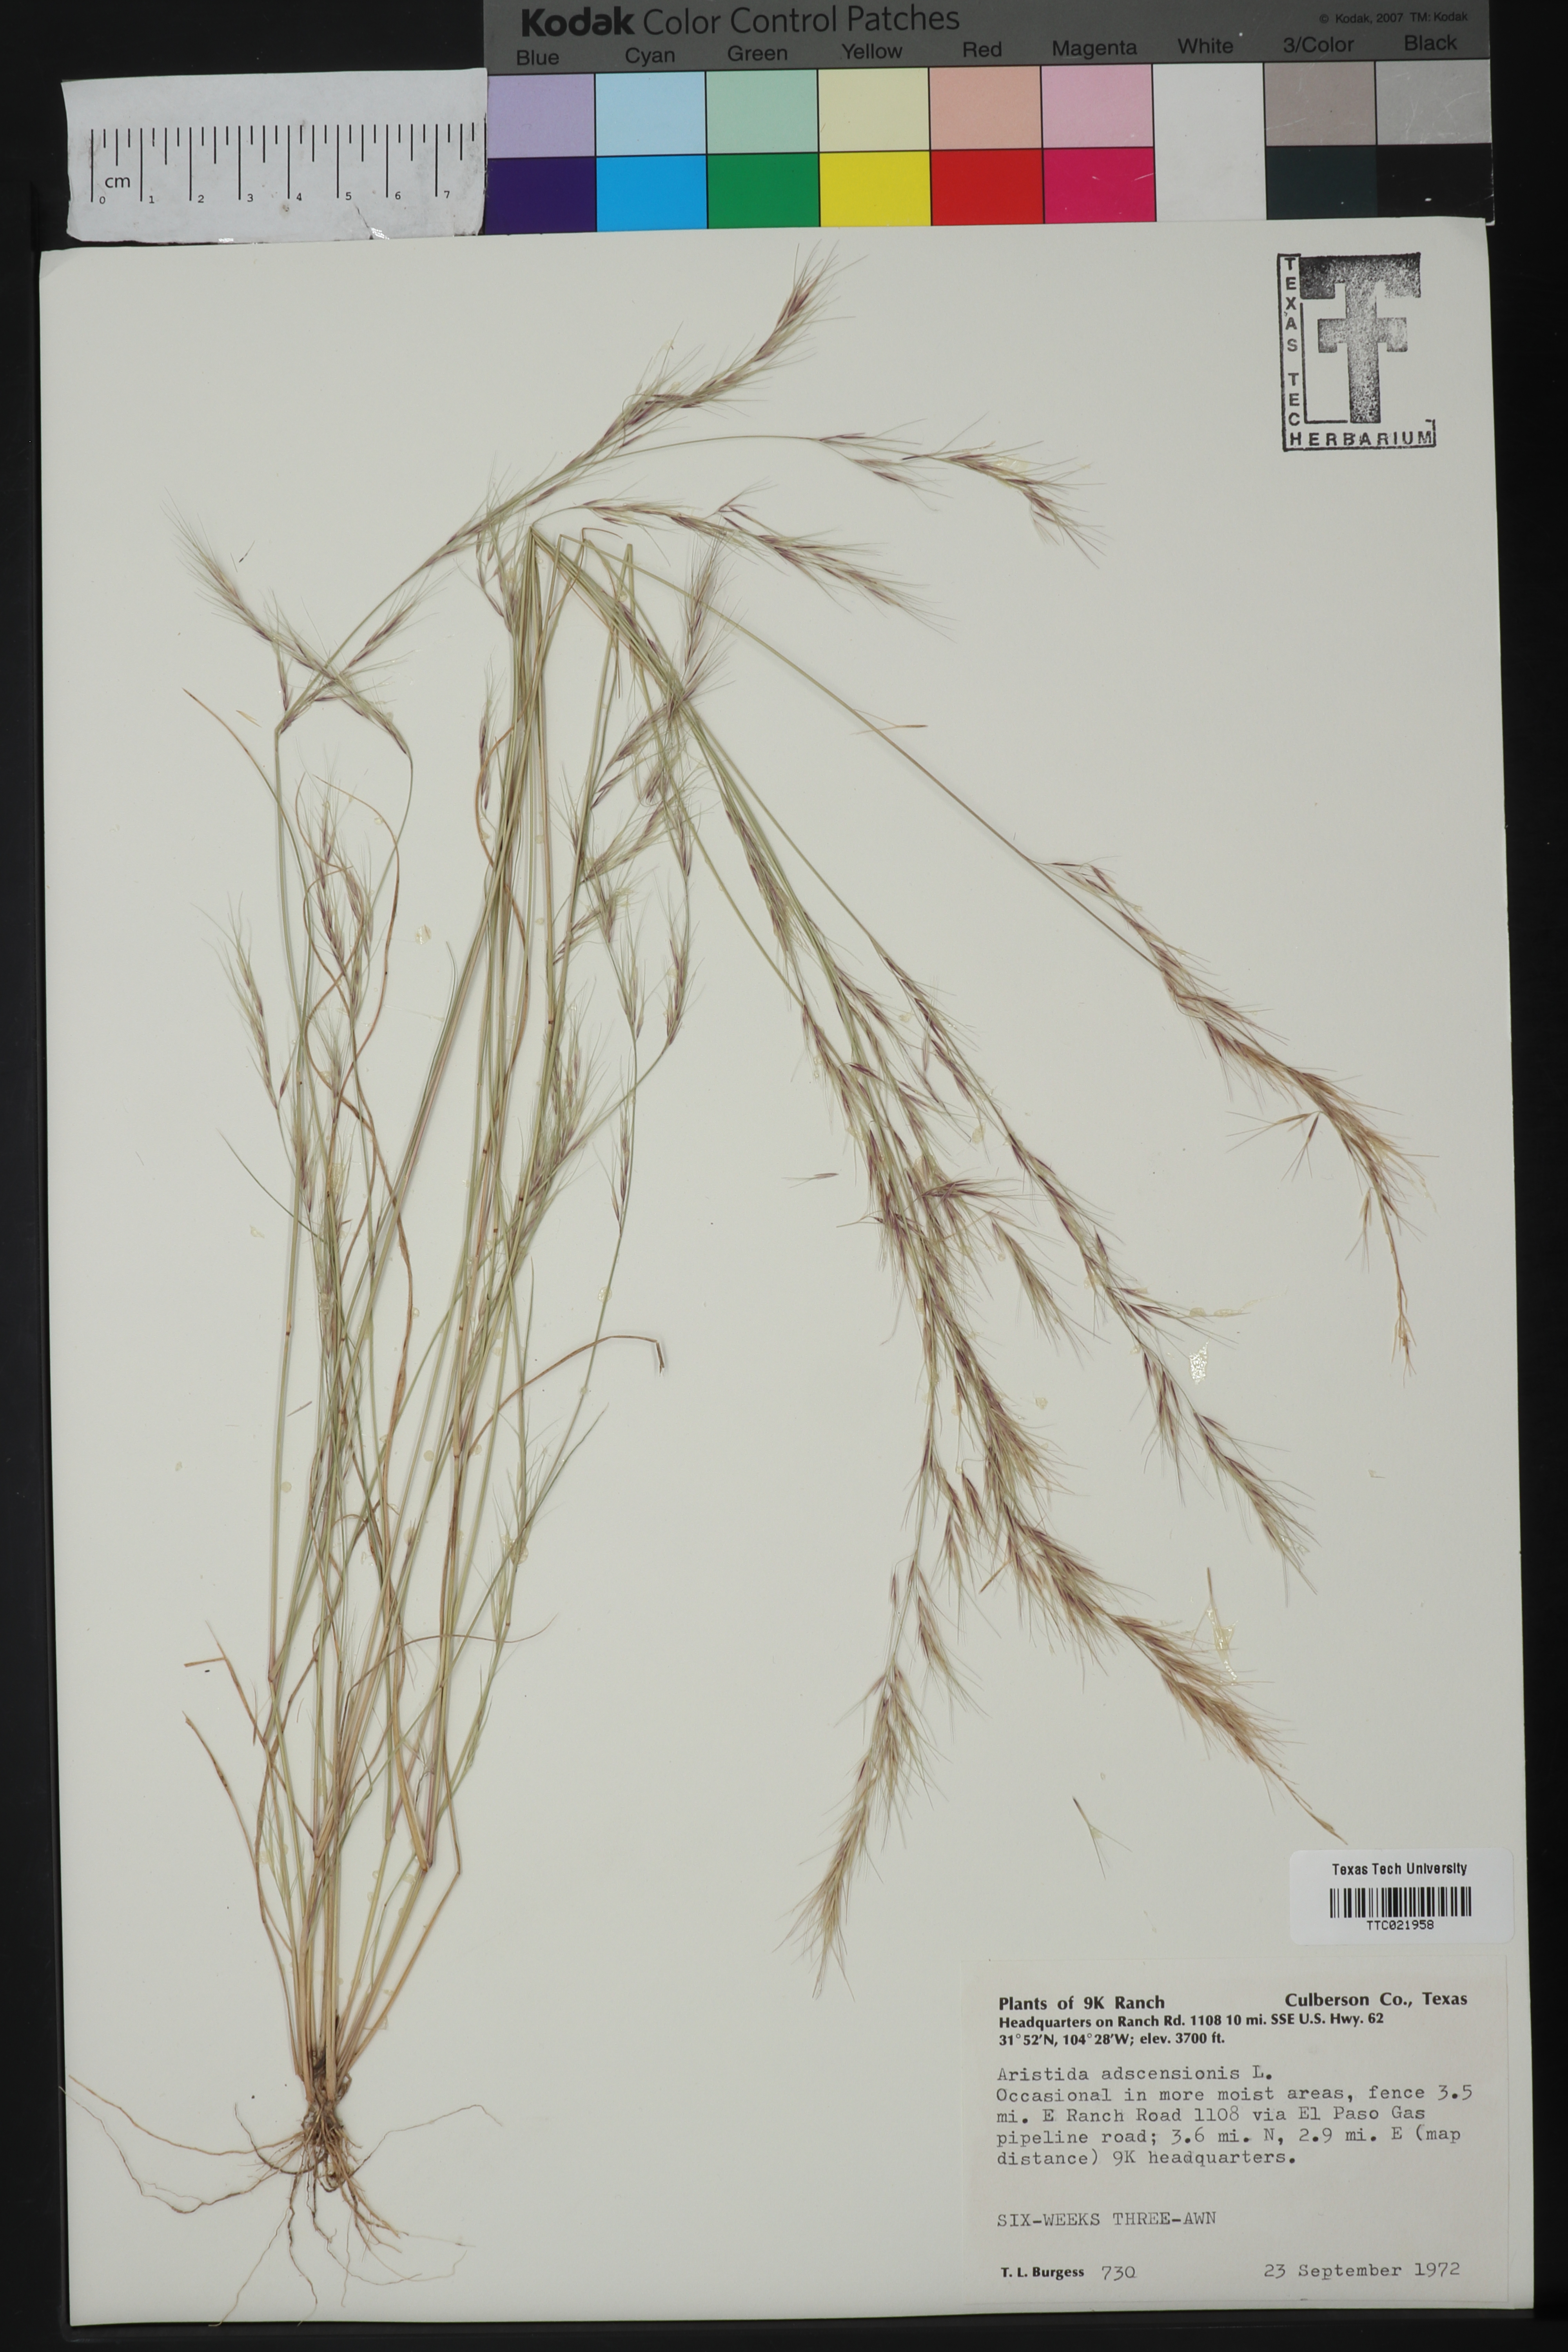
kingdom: Plantae
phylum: Tracheophyta
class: Liliopsida
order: Poales
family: Poaceae
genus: Aristida
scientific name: Aristida adscensionis
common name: Sixweeks threeawn
